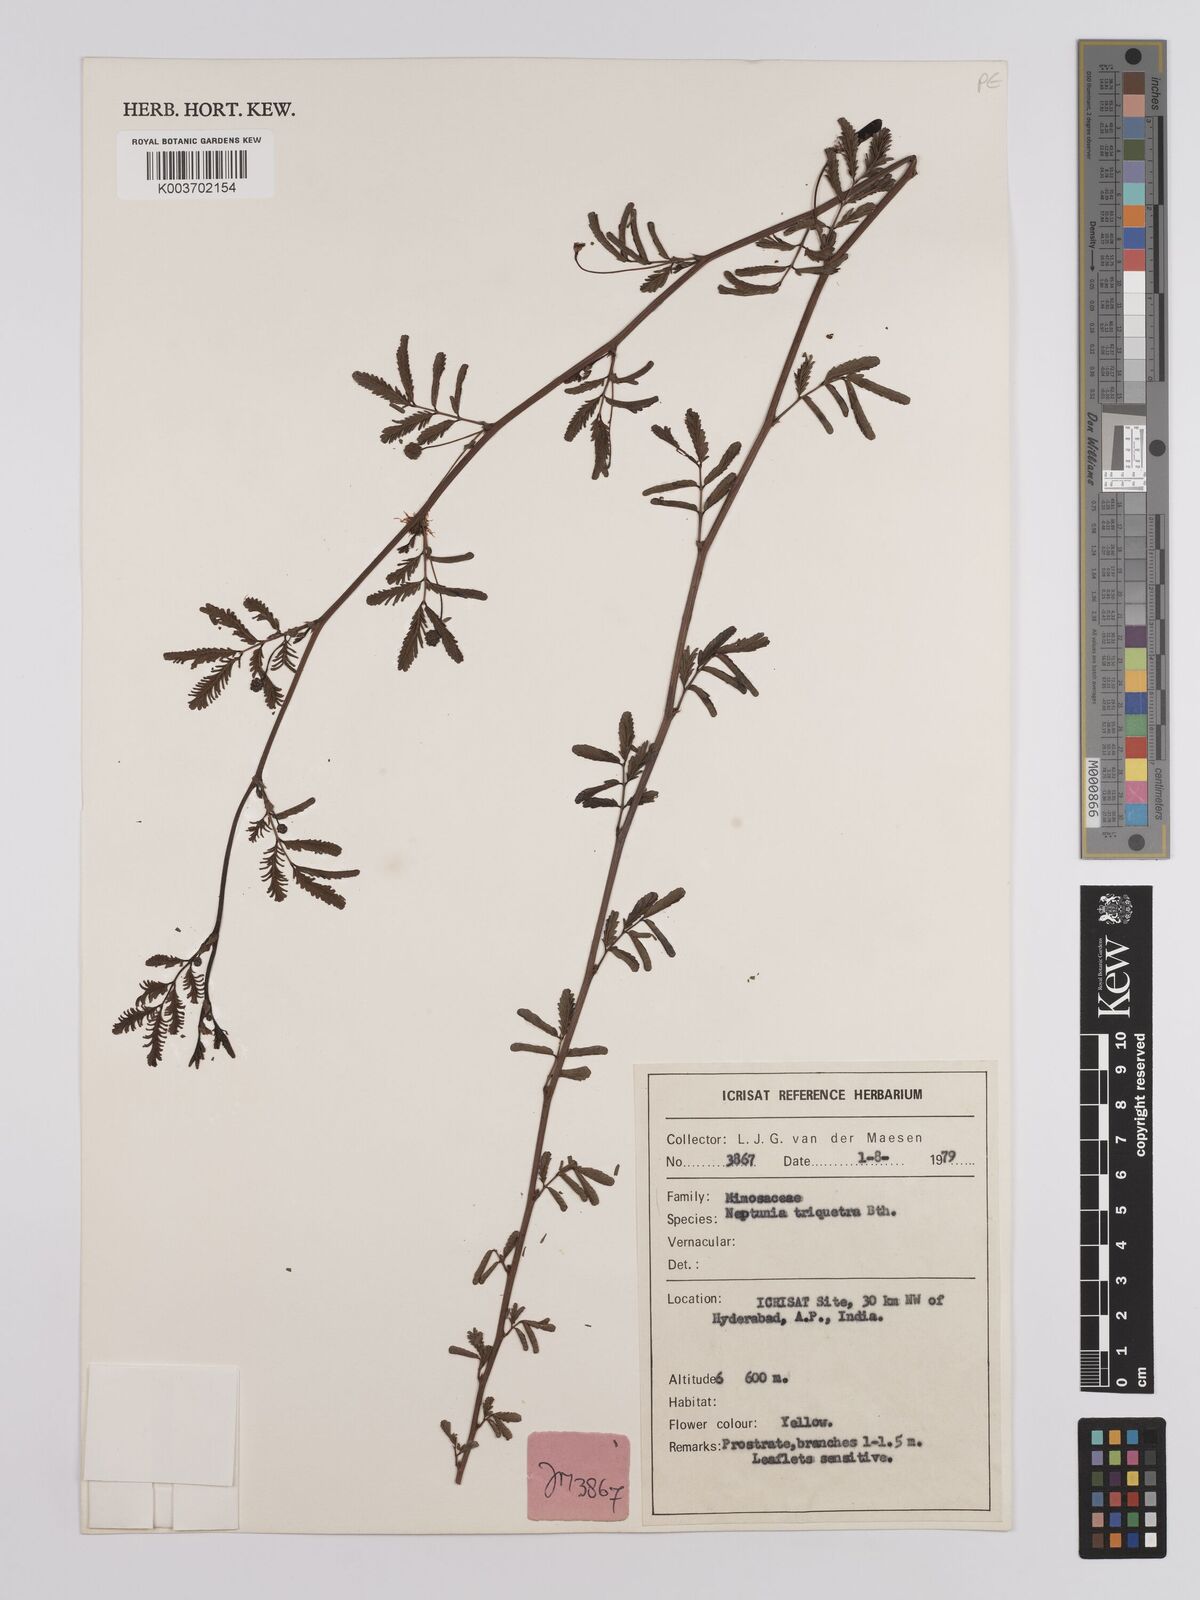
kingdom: Plantae
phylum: Tracheophyta
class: Magnoliopsida
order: Fabales
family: Fabaceae
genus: Neptunia
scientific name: Neptunia triquetra
